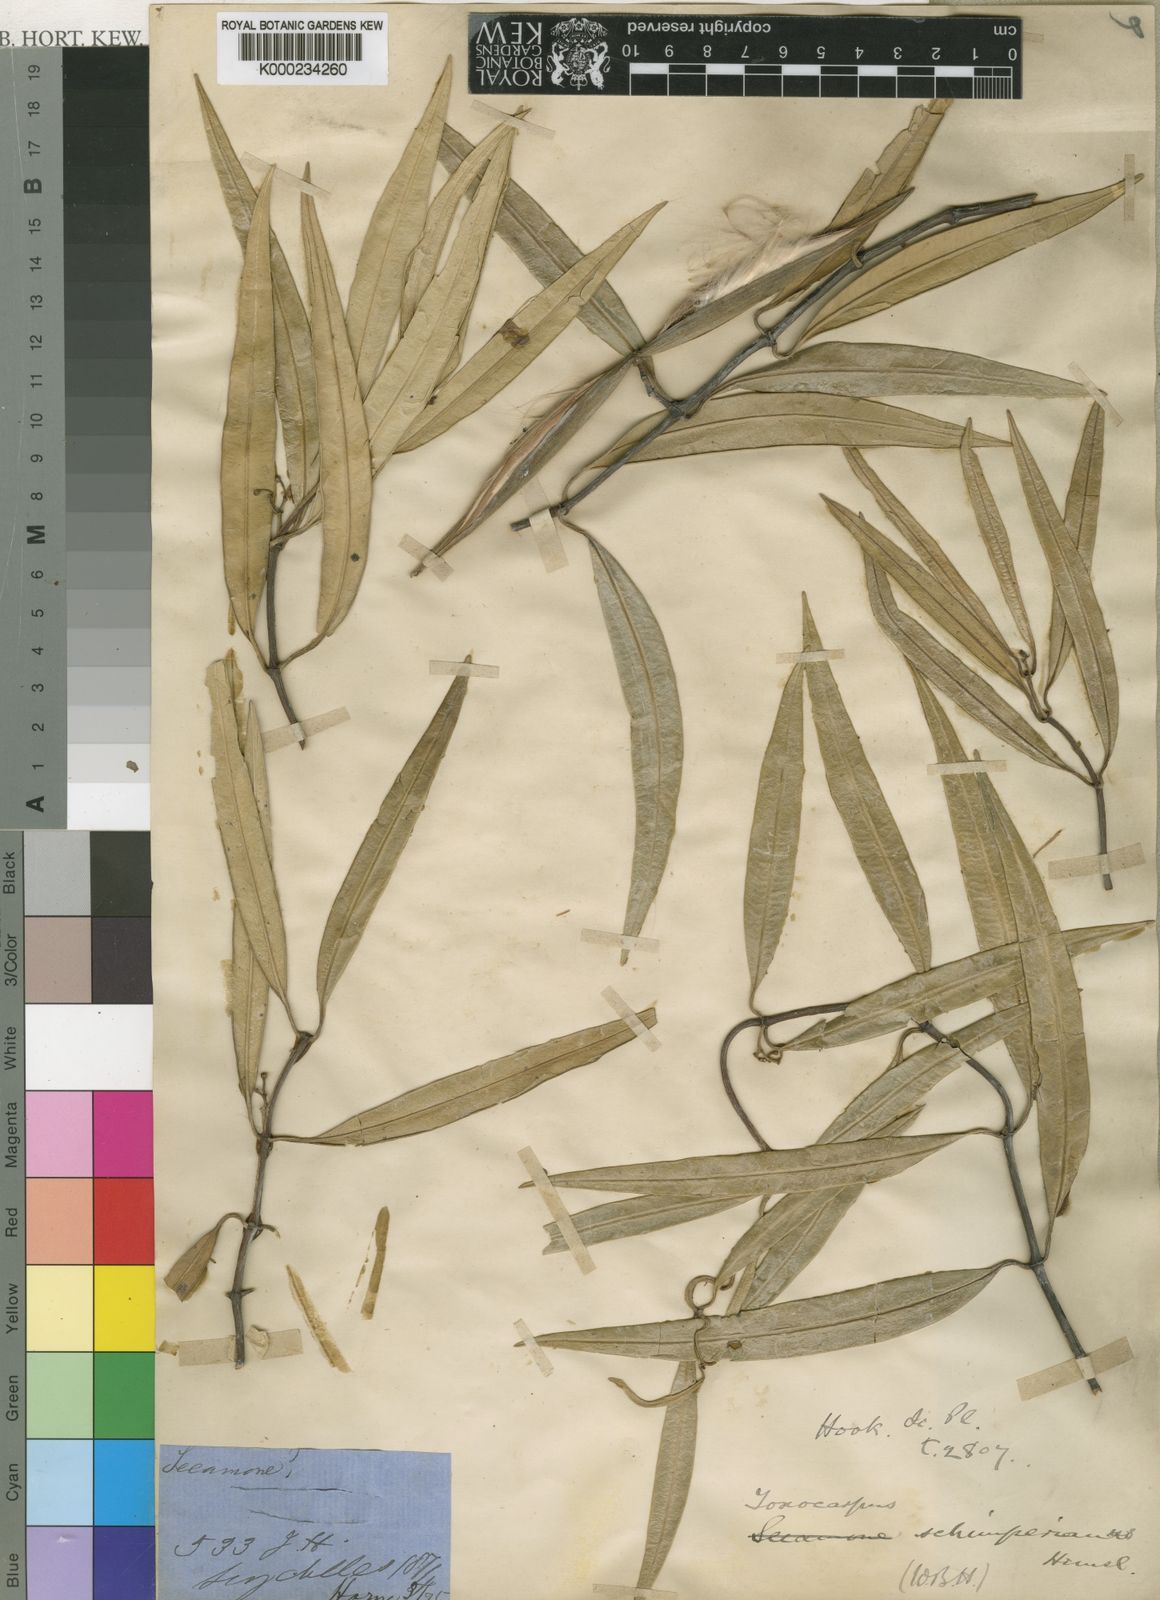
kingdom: Plantae
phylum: Tracheophyta
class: Magnoliopsida
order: Gentianales
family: Apocynaceae
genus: Secamone
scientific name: Secamone schimperiana
